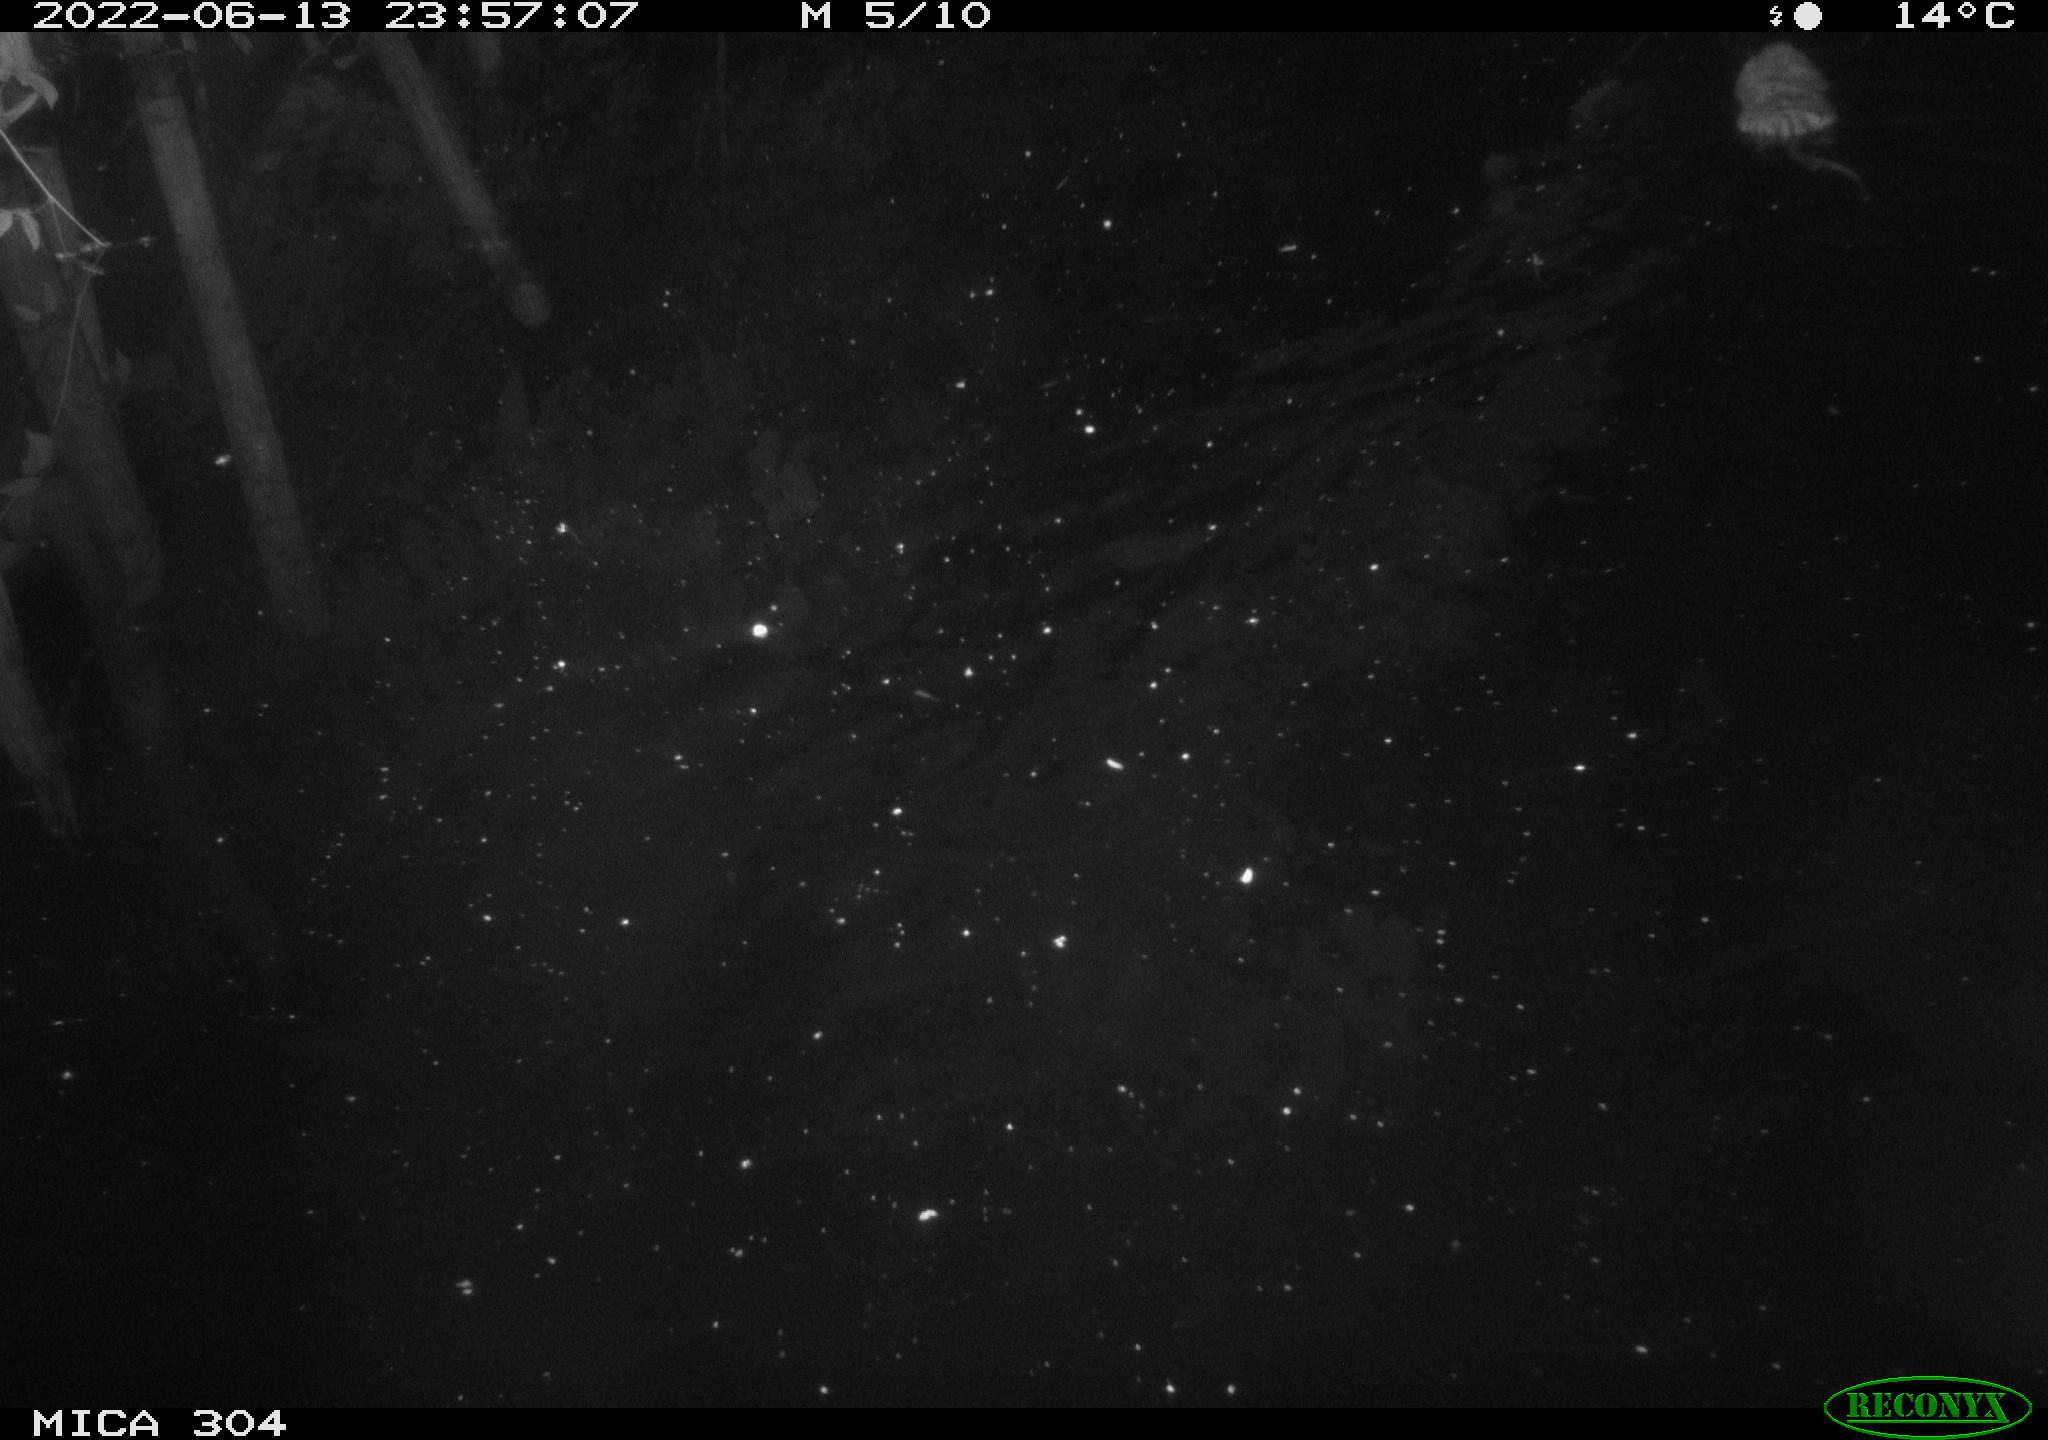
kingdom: Animalia
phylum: Chordata
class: Mammalia
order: Rodentia
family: Cricetidae
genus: Ondatra
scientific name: Ondatra zibethicus
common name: Muskrat
